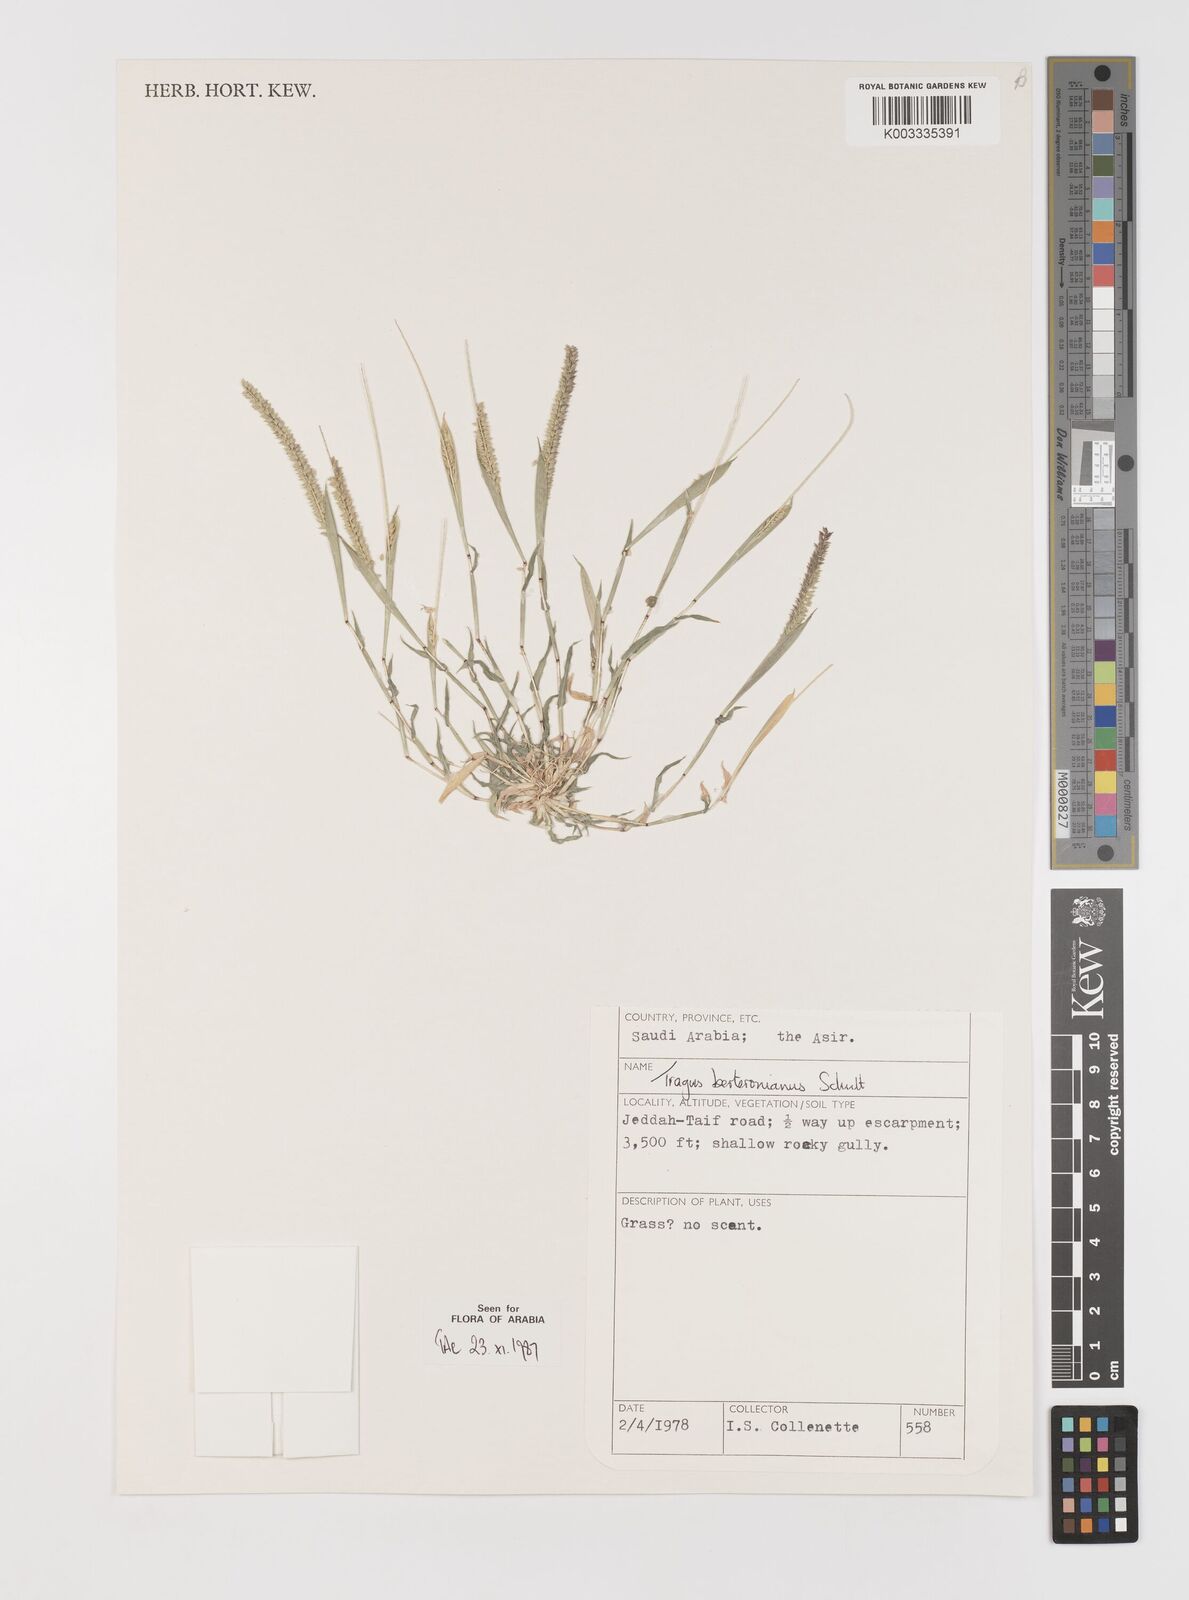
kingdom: Plantae
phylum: Tracheophyta
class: Liliopsida
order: Poales
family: Poaceae
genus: Tragus
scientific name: Tragus berteronianus
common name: African bur-grass
